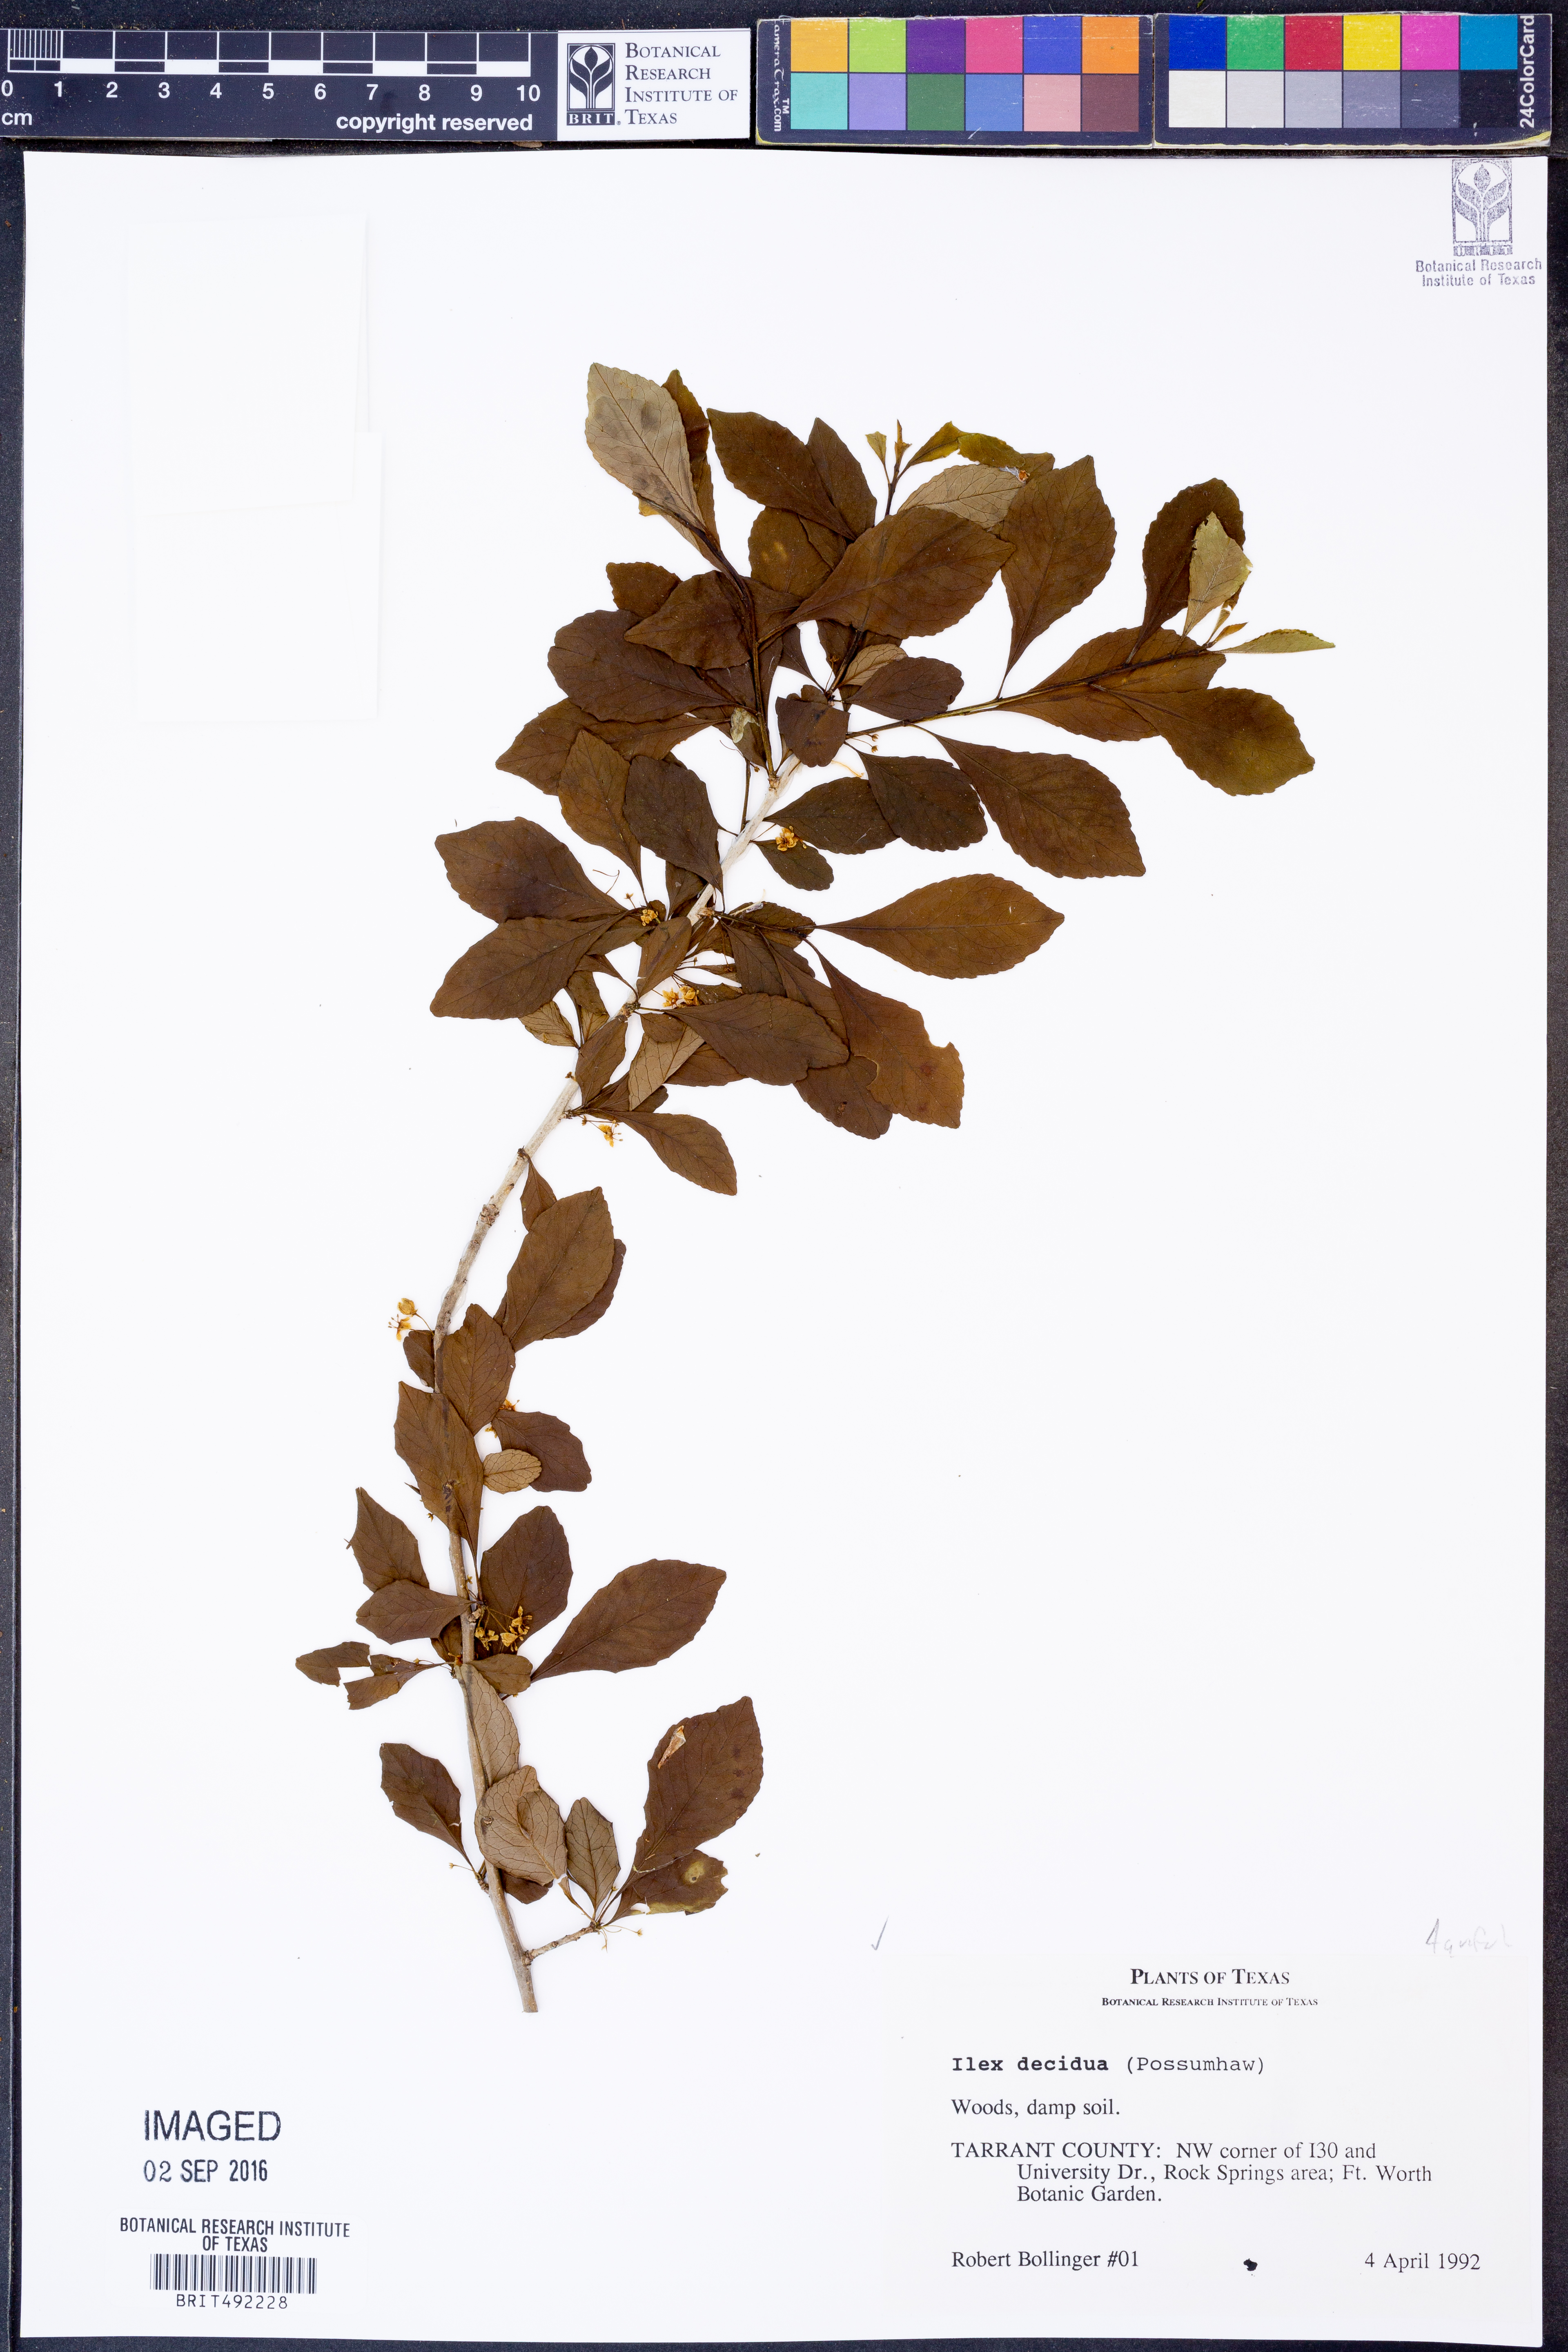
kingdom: Plantae
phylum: Tracheophyta
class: Magnoliopsida
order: Aquifoliales
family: Aquifoliaceae
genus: Ilex
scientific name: Ilex decidua
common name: Possum-haw
